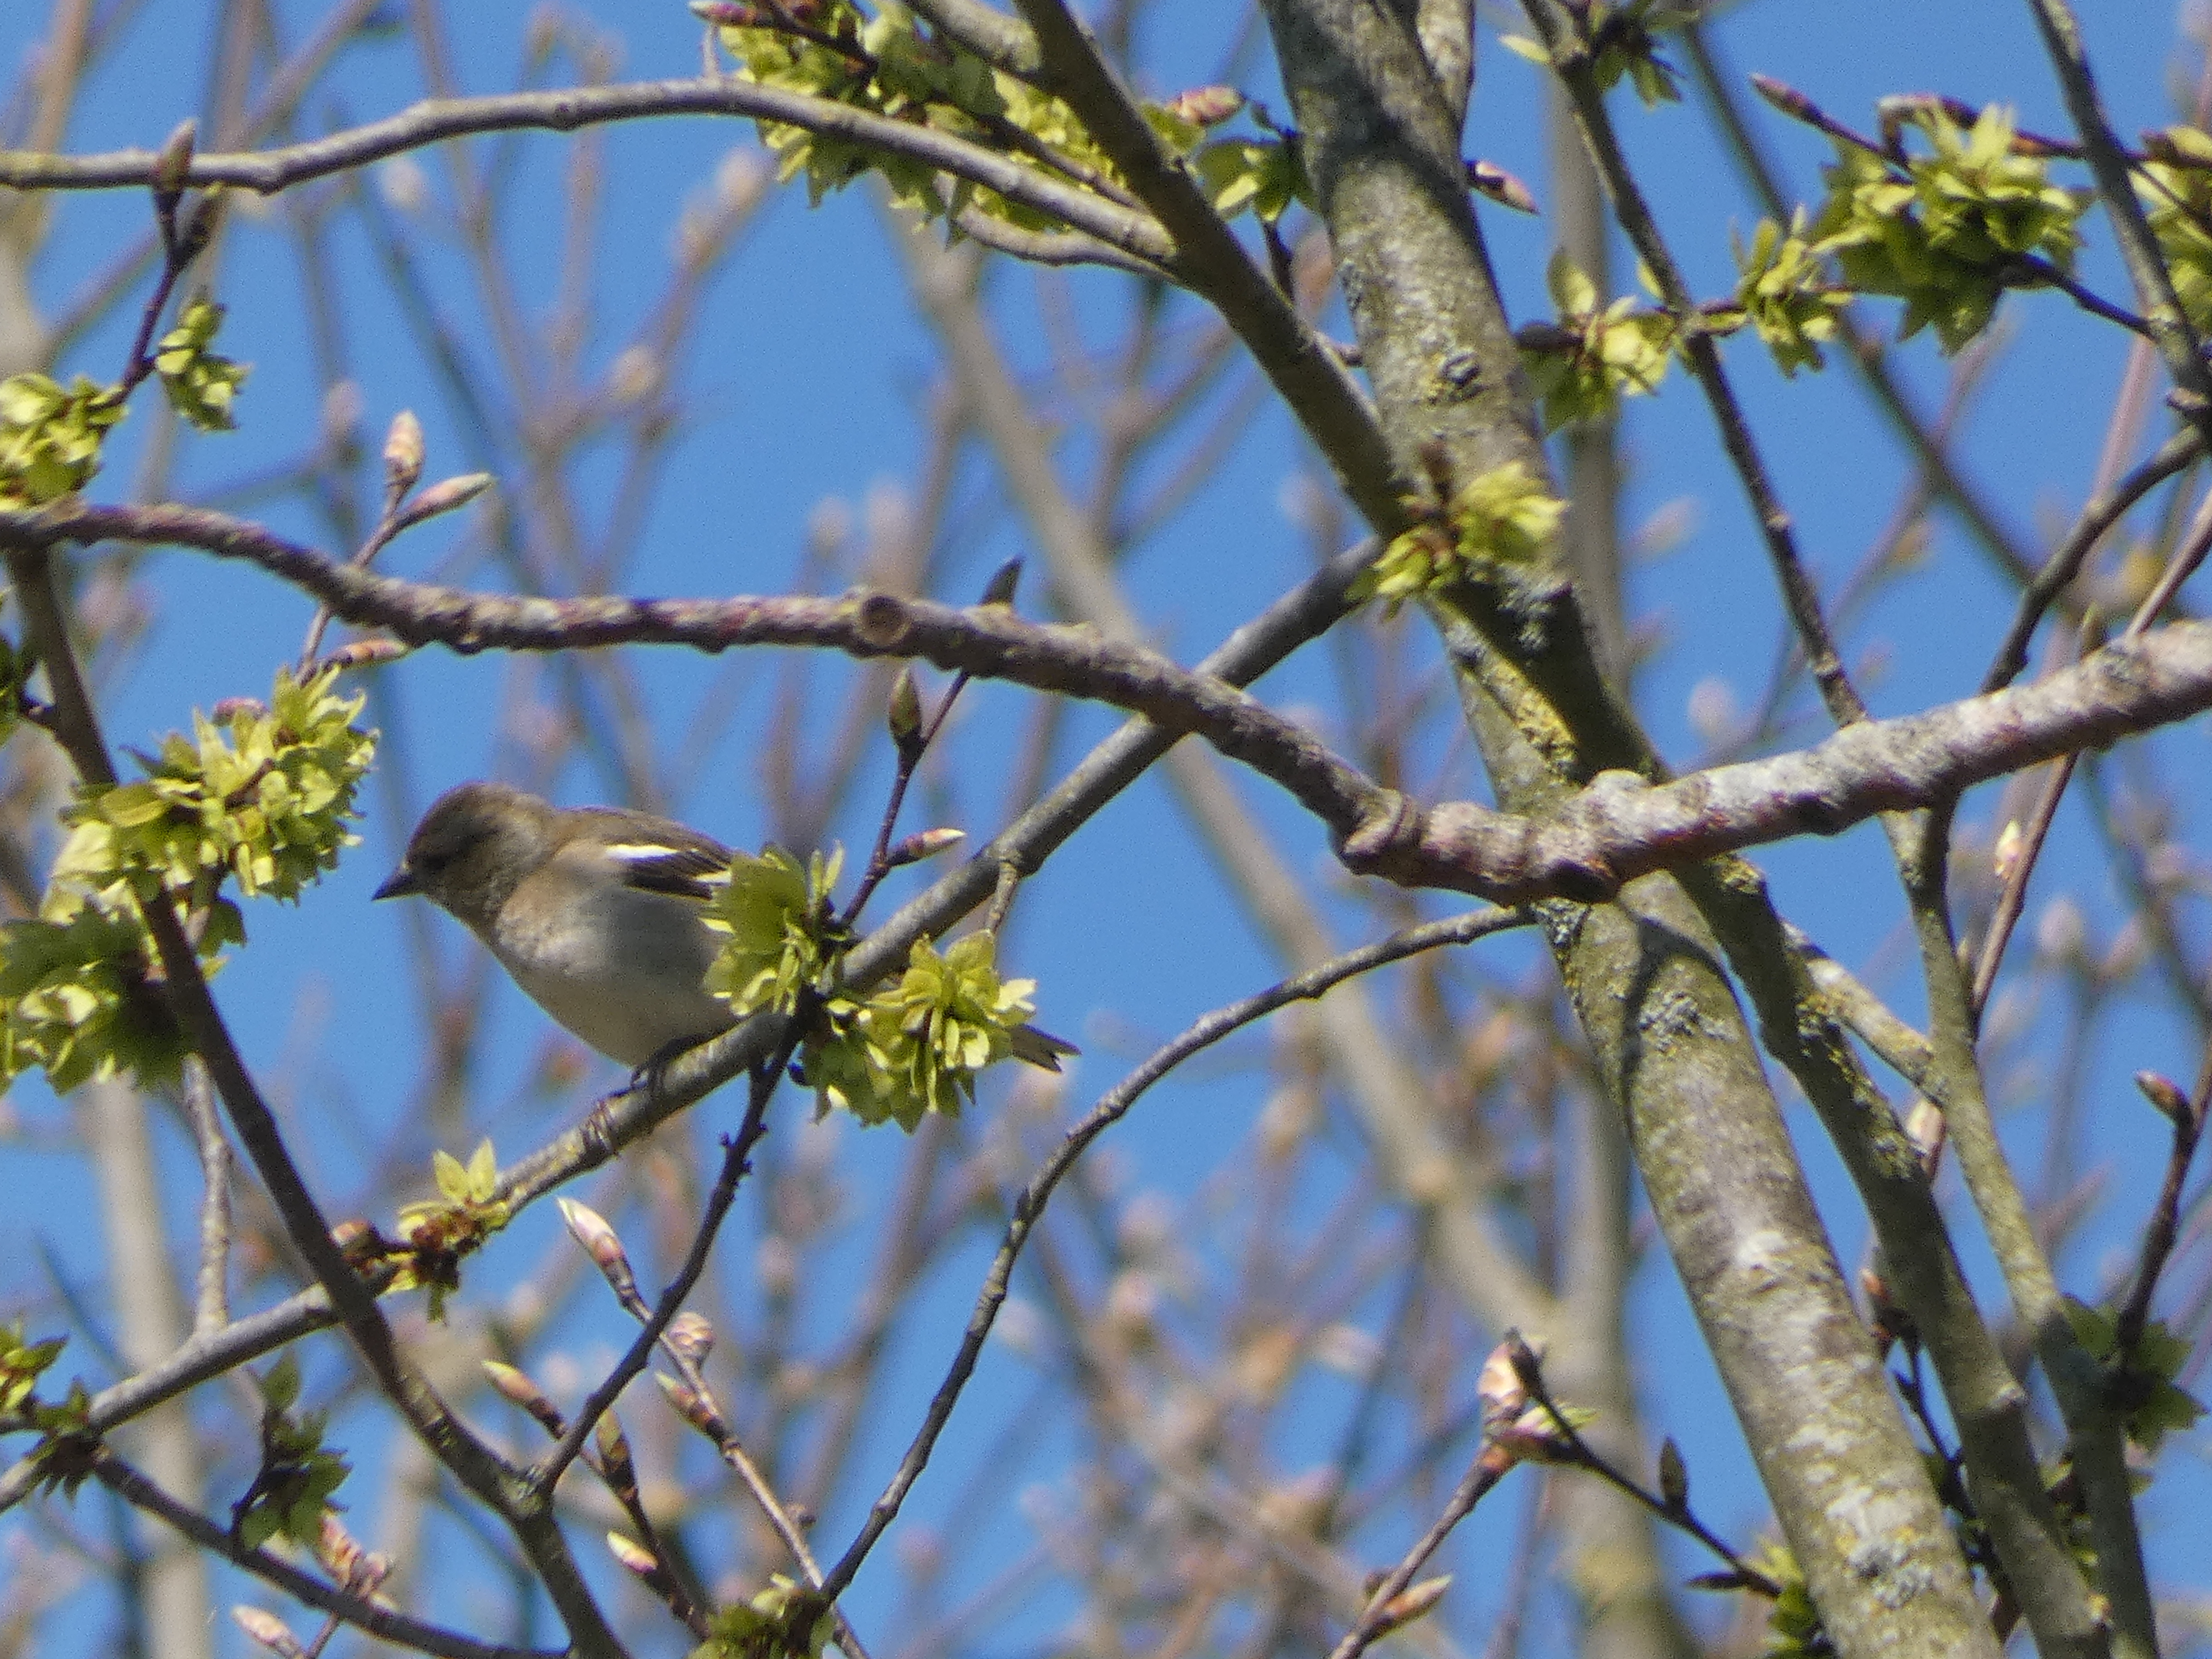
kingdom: Animalia
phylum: Chordata
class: Aves
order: Passeriformes
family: Fringillidae
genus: Fringilla
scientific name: Fringilla coelebs
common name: Bogfinke
